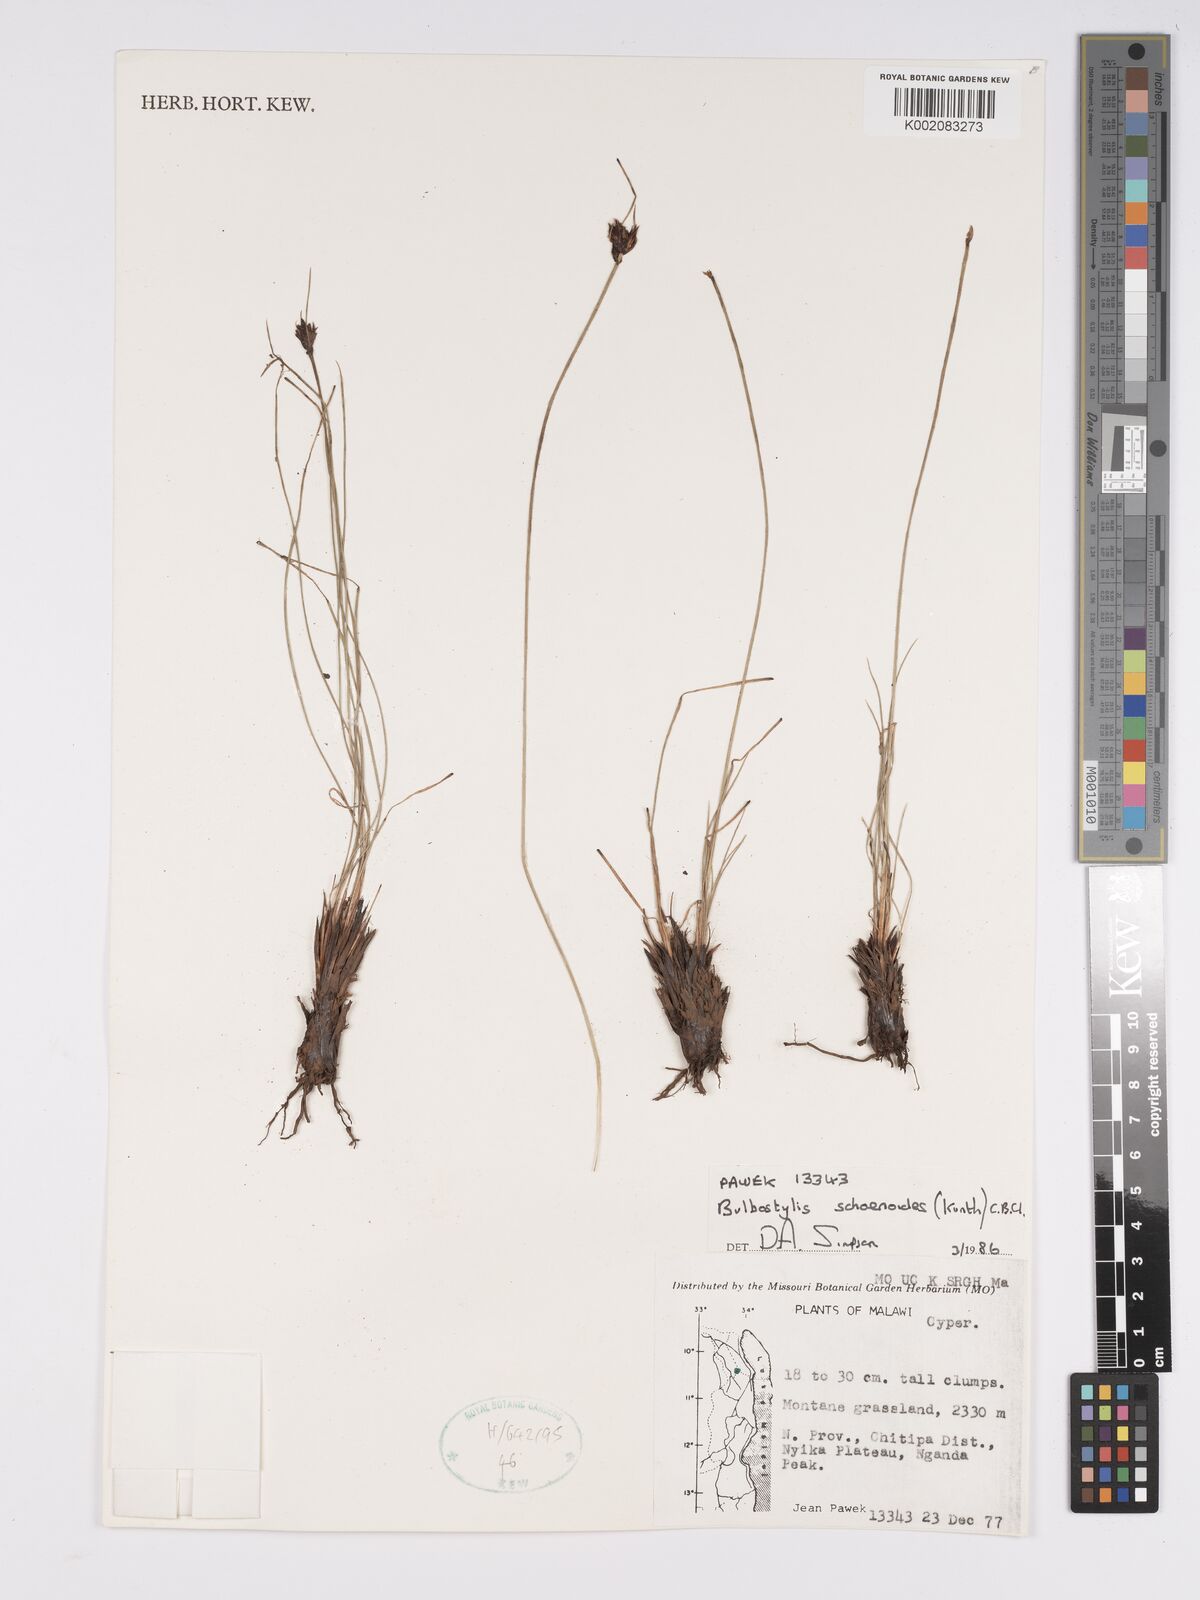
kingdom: Plantae
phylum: Tracheophyta
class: Liliopsida
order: Poales
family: Cyperaceae
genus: Bulbostylis
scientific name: Bulbostylis schoenoides
